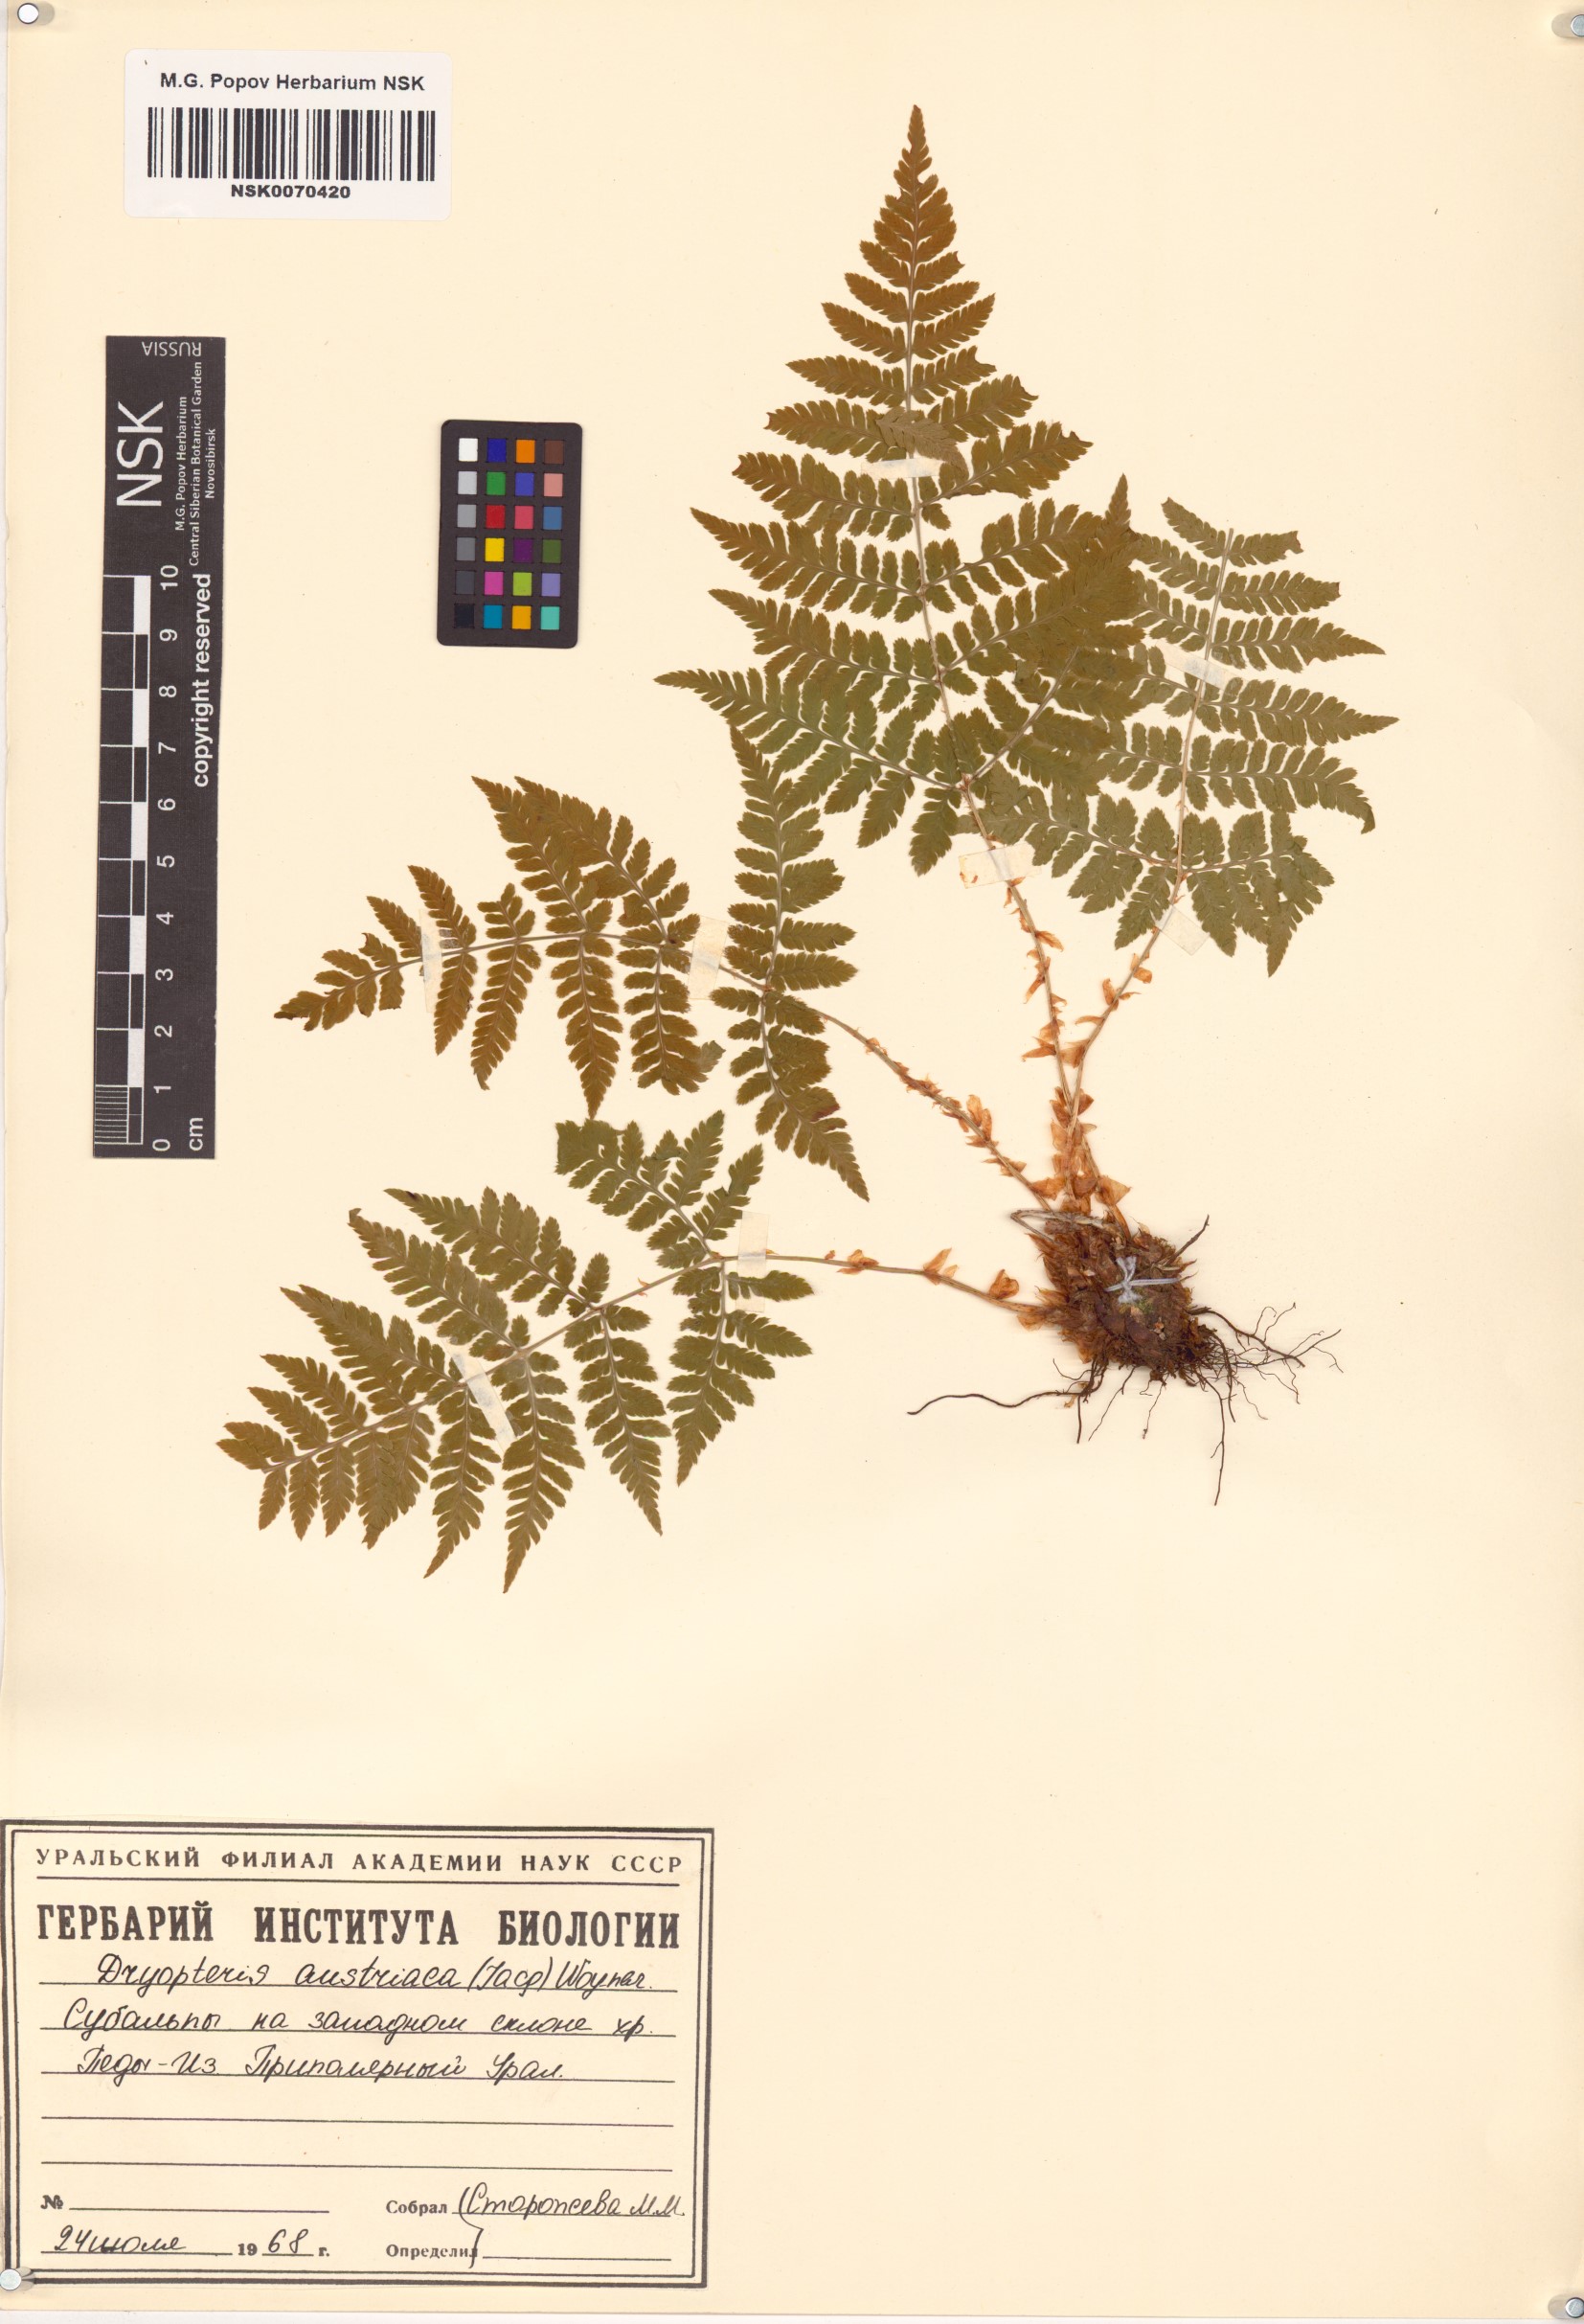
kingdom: Plantae
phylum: Tracheophyta
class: Polypodiopsida
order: Polypodiales
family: Dryopteridaceae
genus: Dryopteris
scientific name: Dryopteris dilatata
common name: Broad buckler-fern
